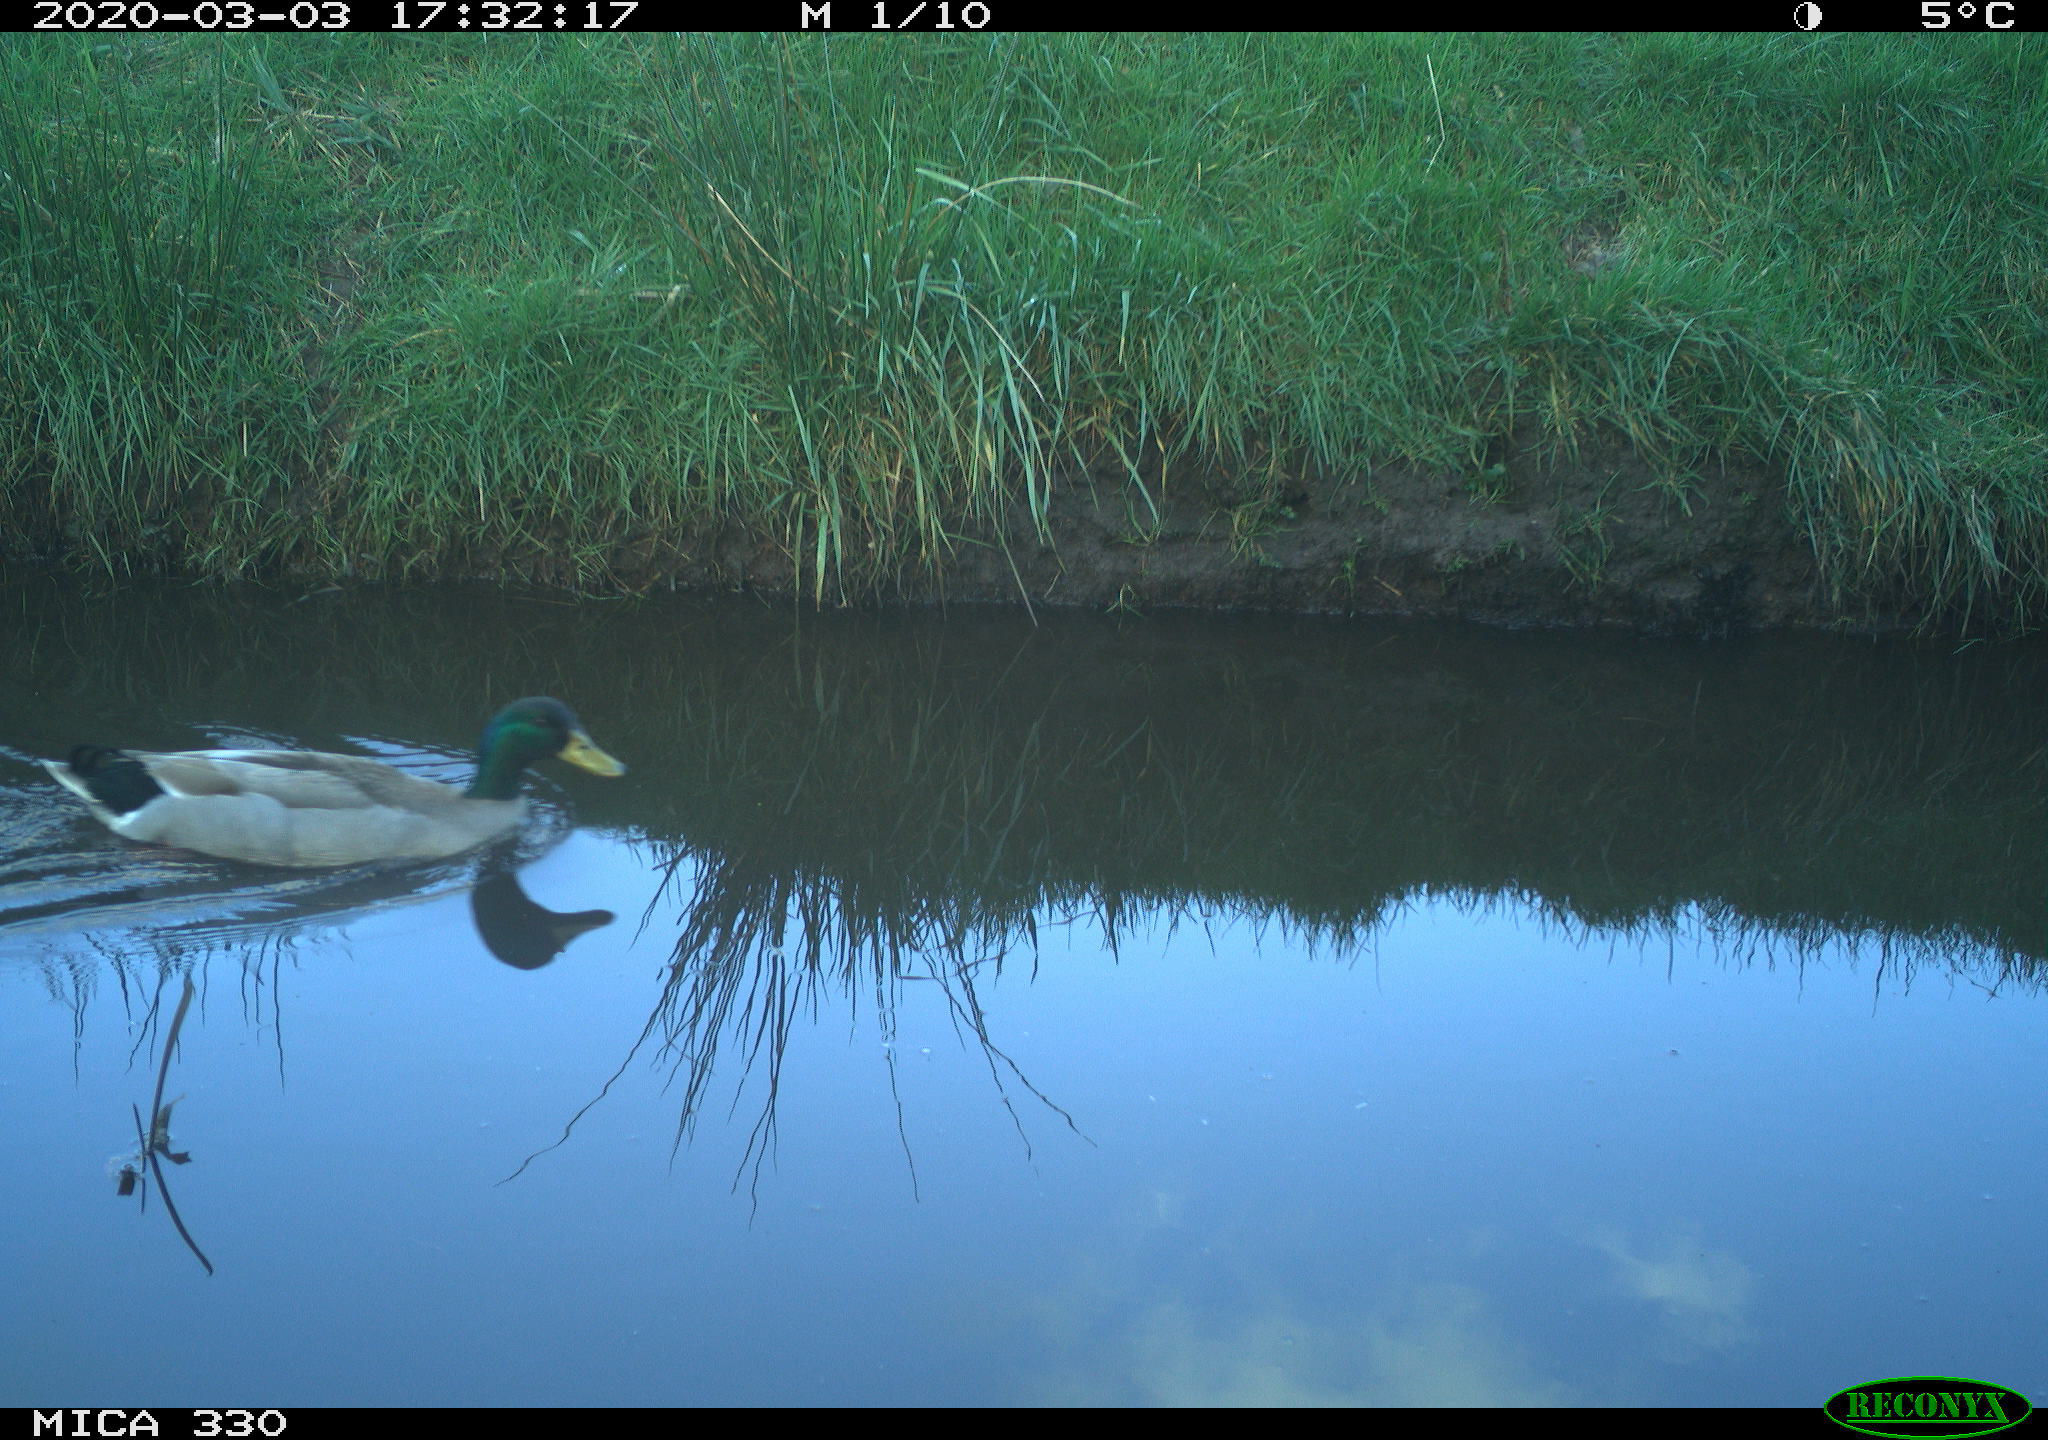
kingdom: Animalia
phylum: Chordata
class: Aves
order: Anseriformes
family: Anatidae
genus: Anas
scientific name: Anas platyrhynchos
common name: Mallard
